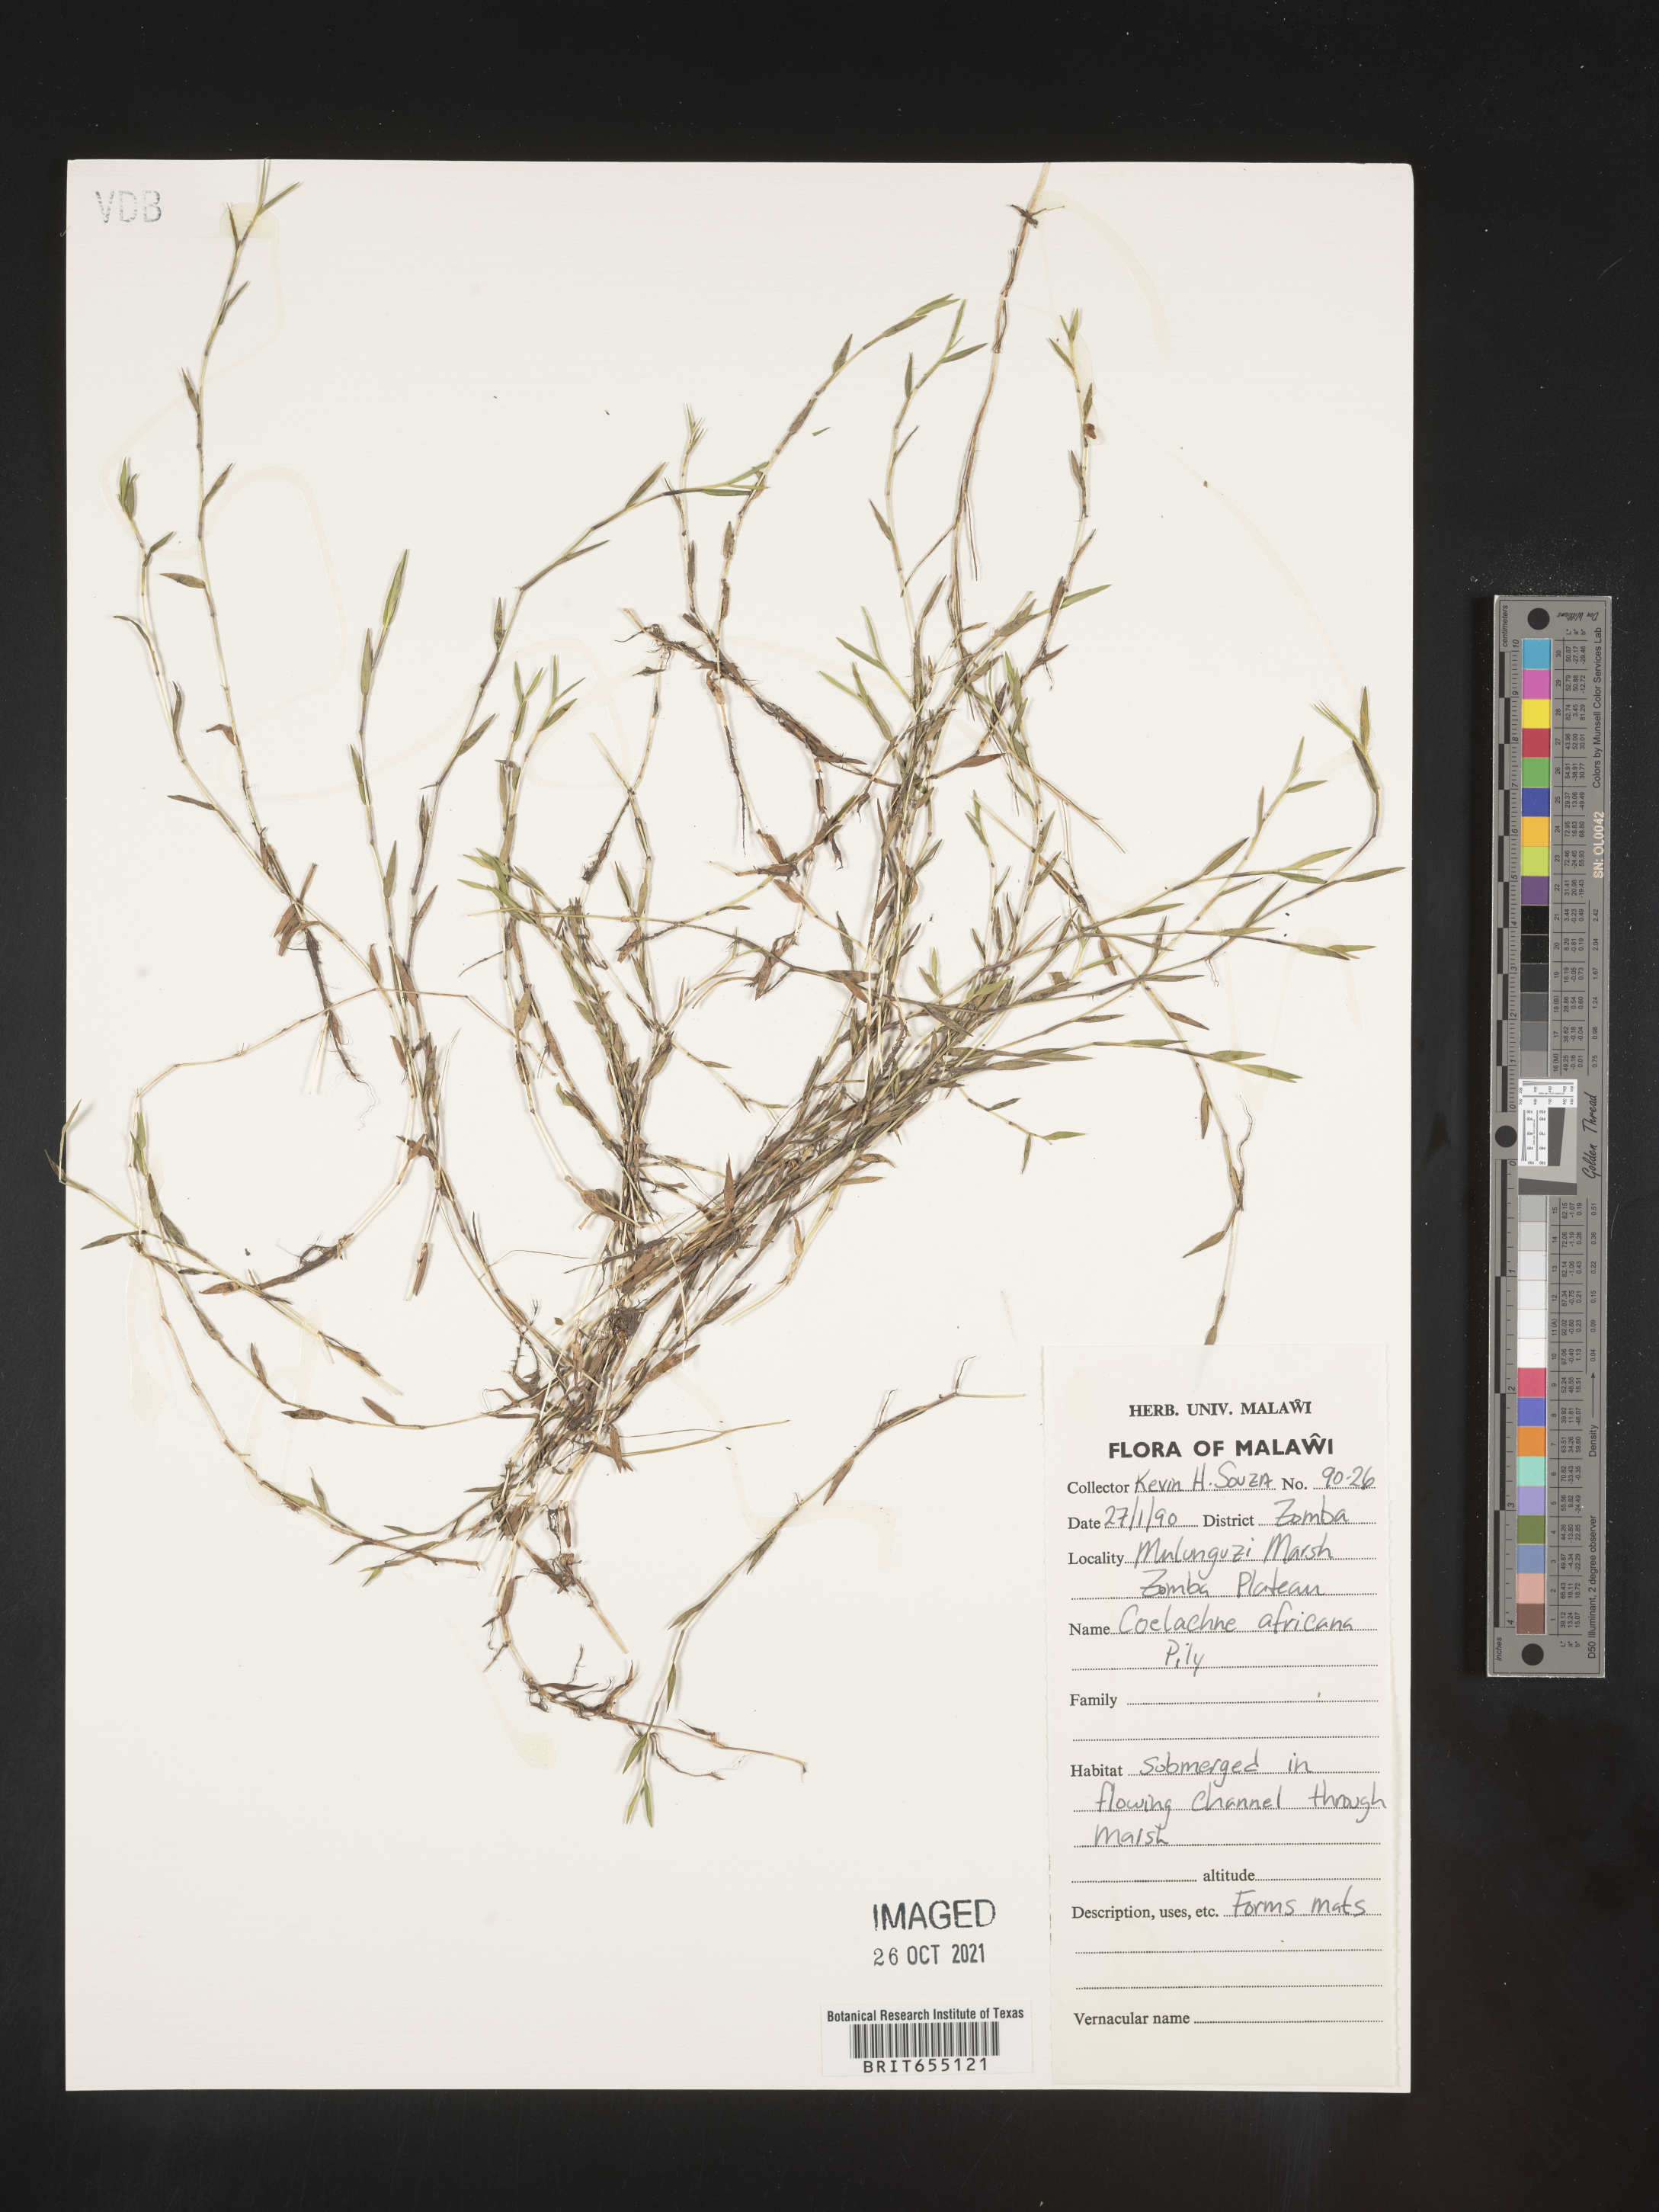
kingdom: Plantae
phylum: Tracheophyta
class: Liliopsida
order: Poales
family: Poaceae
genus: Coelachne
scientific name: Coelachne
